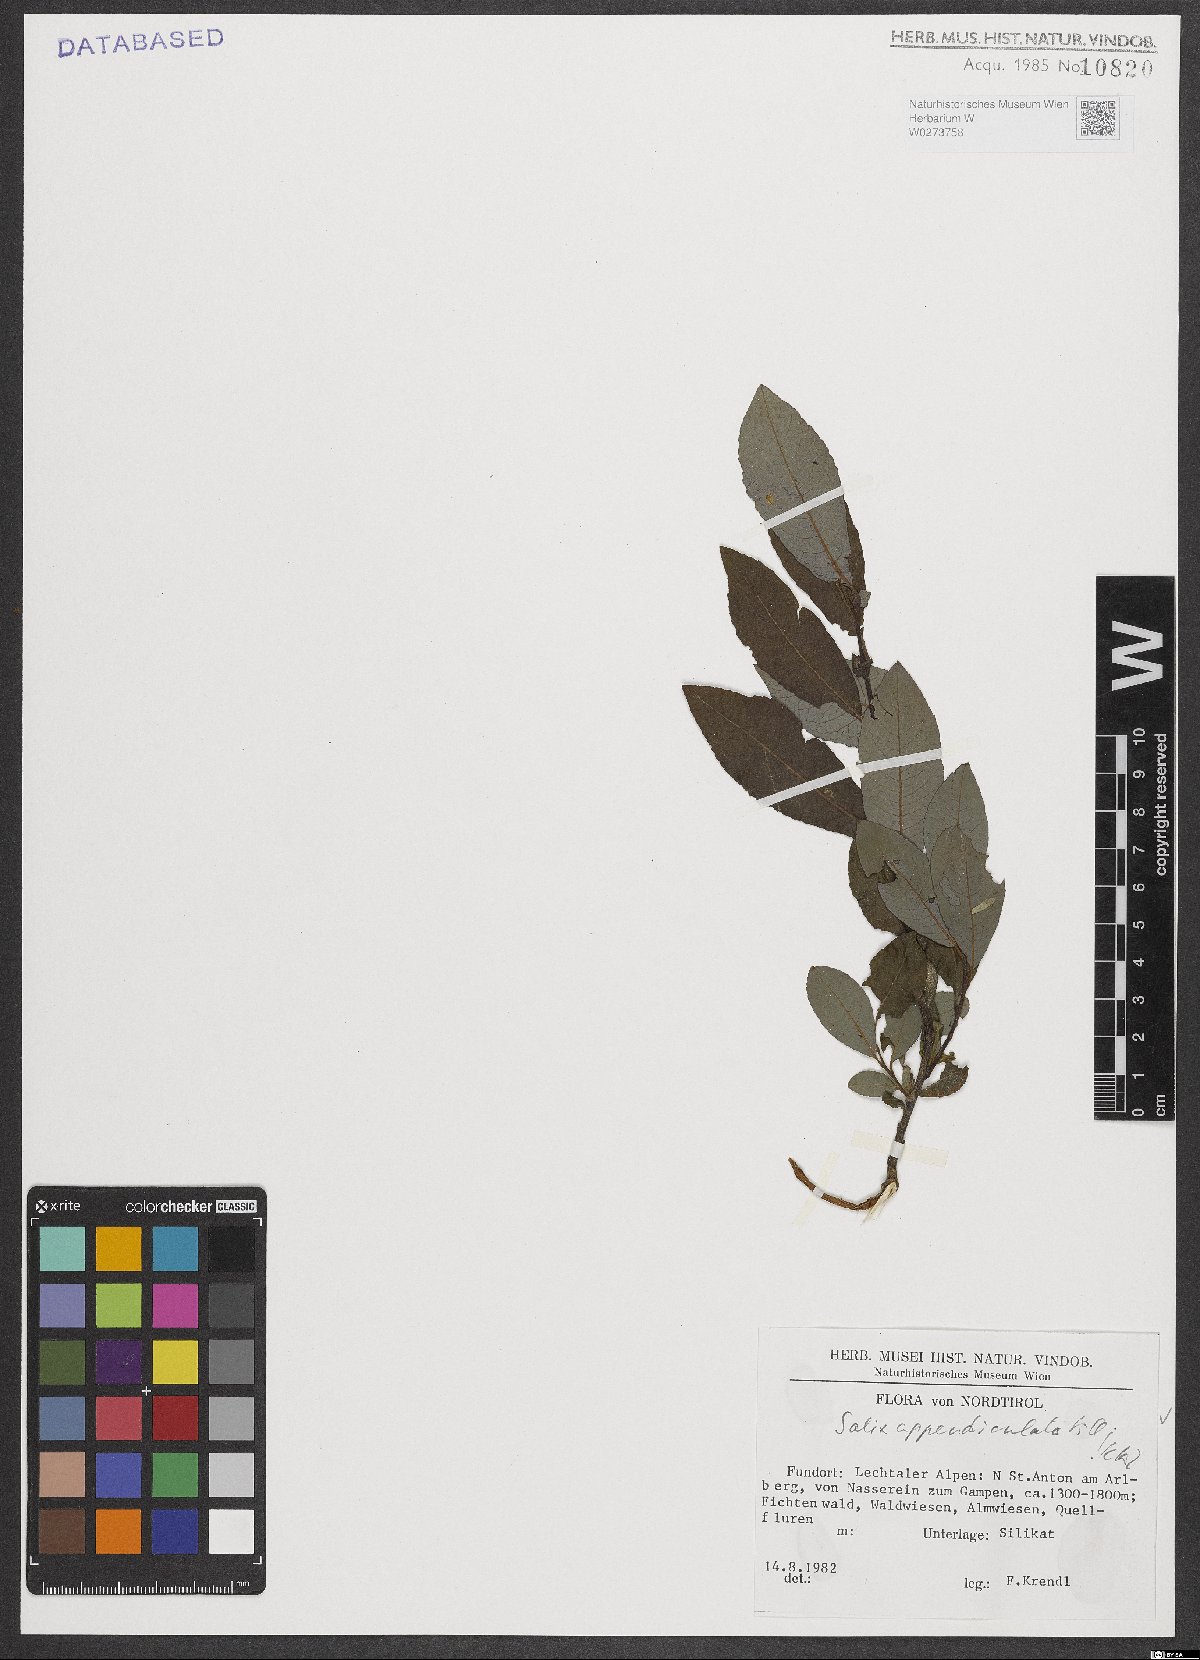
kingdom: Plantae
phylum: Tracheophyta
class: Magnoliopsida
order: Malpighiales
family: Salicaceae
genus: Salix
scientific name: Salix appendiculata
